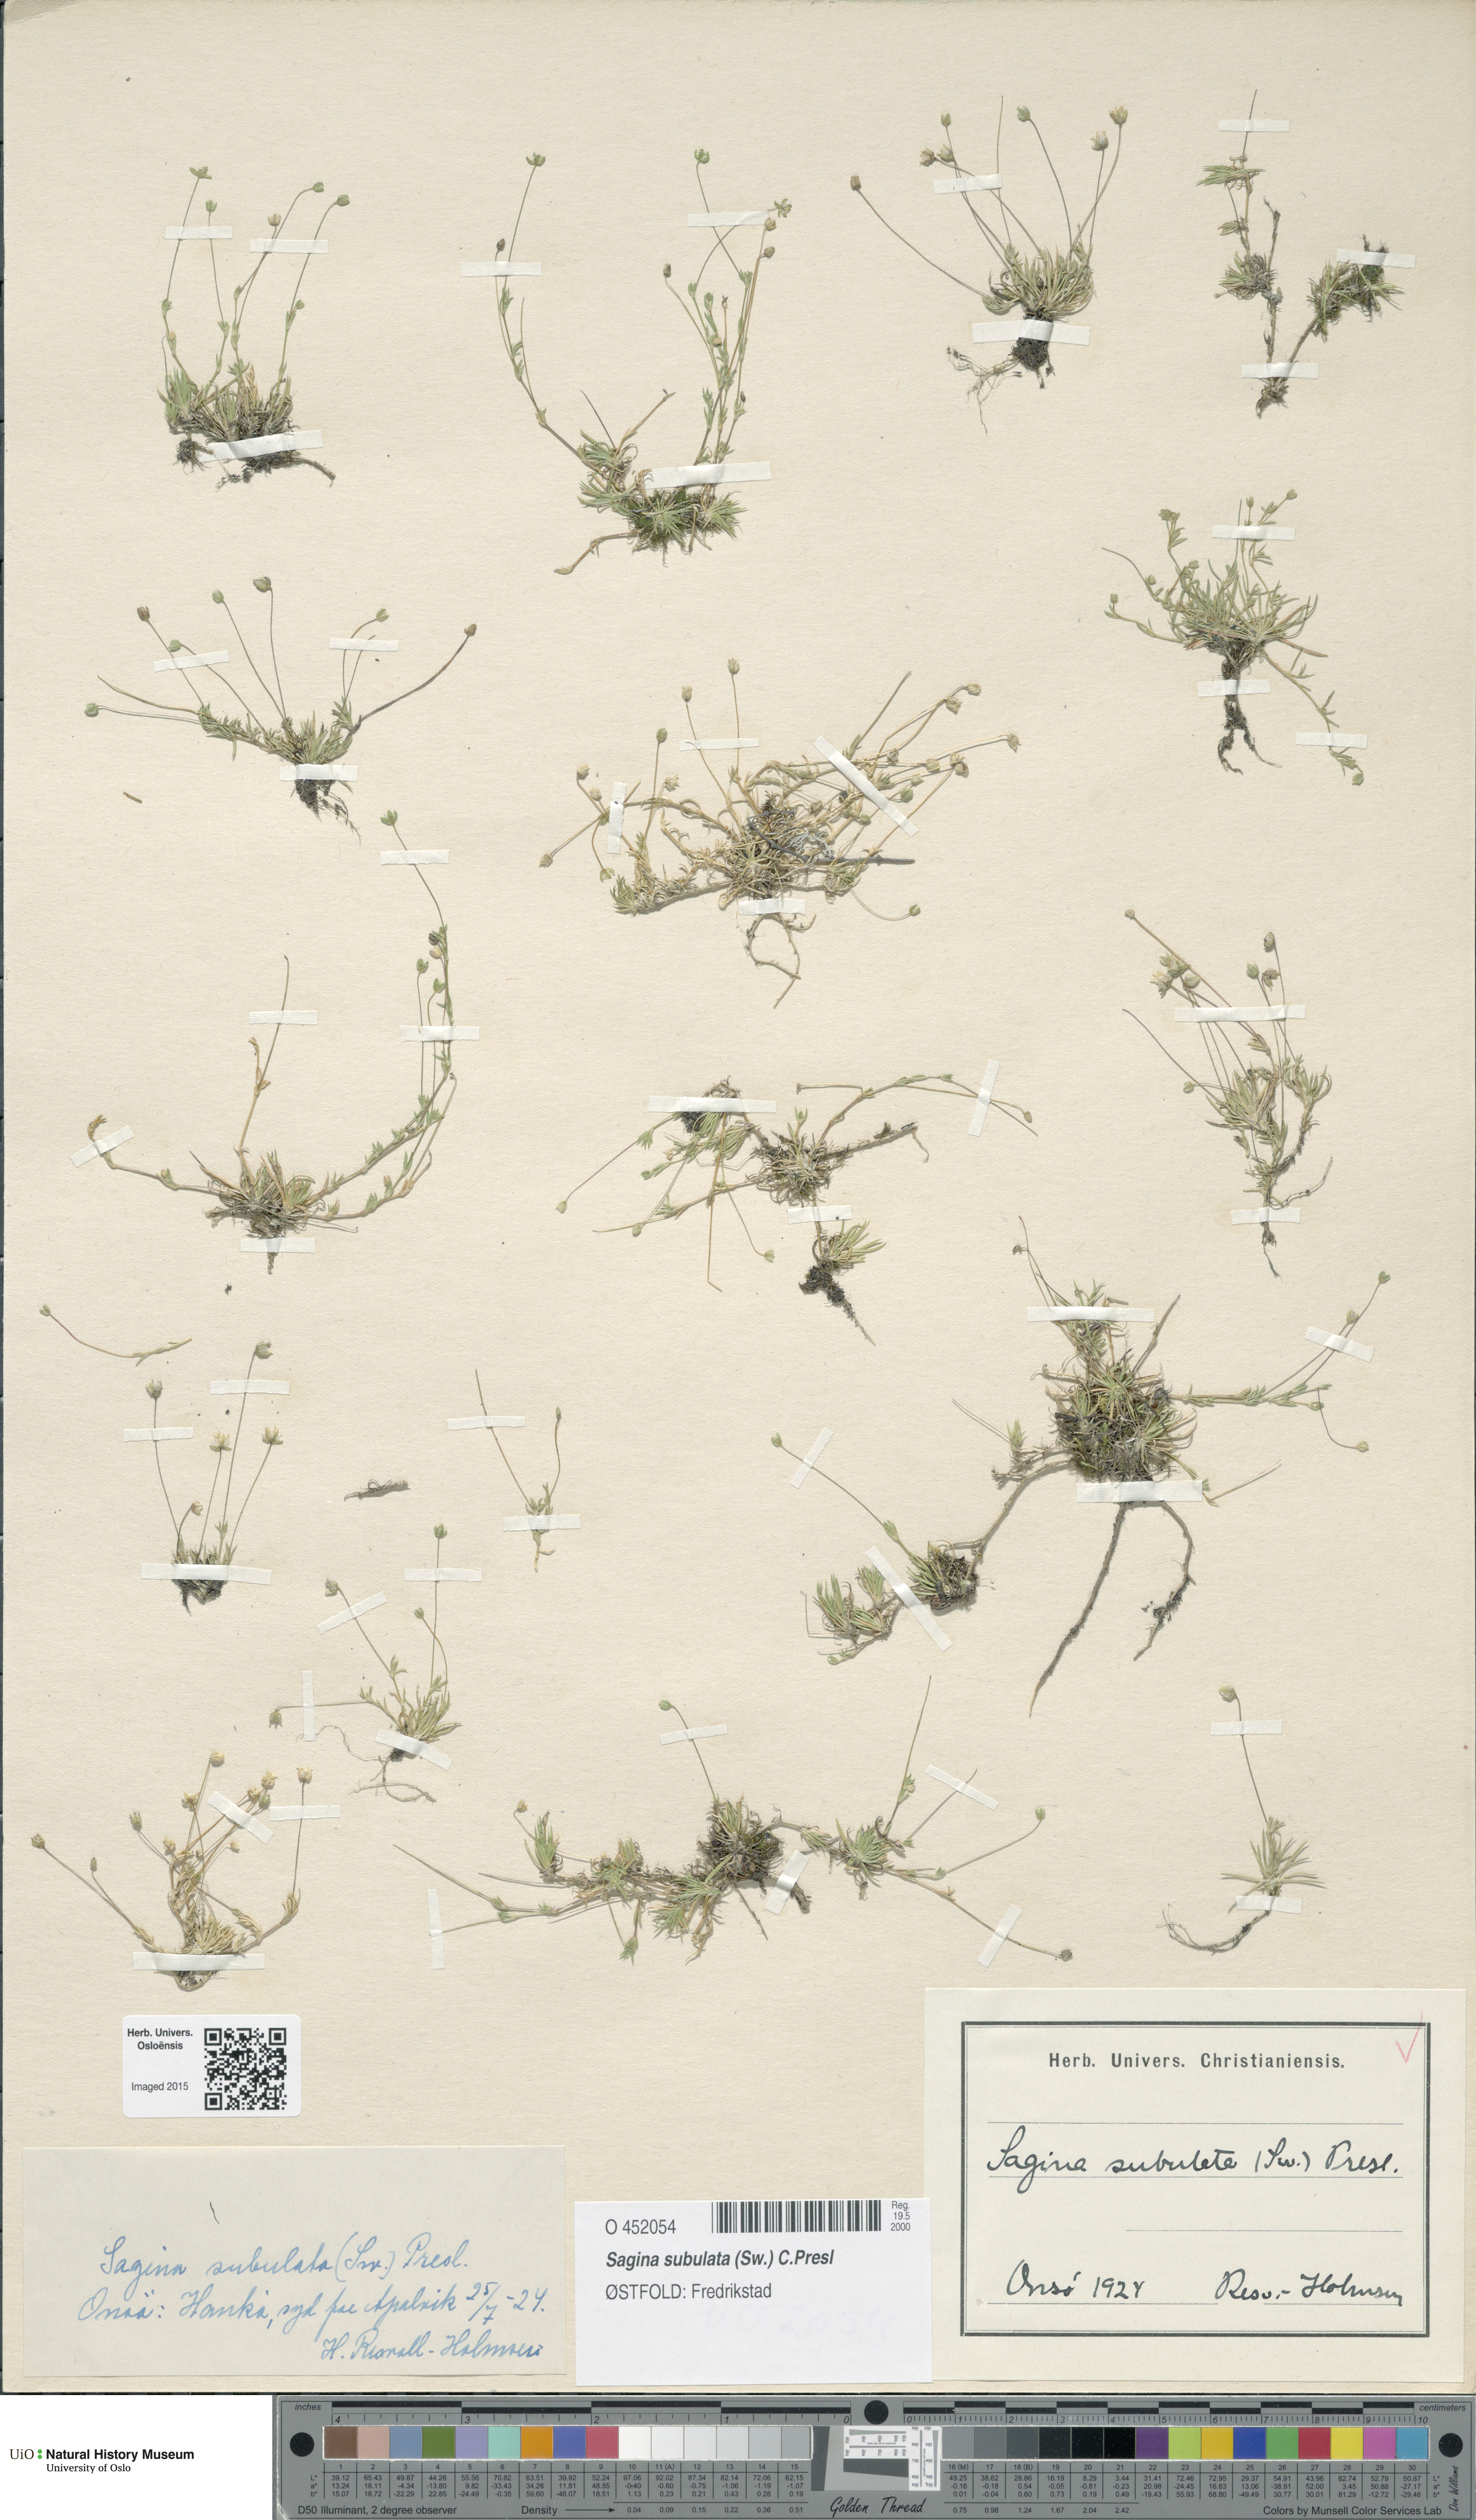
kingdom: Plantae
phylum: Tracheophyta
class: Magnoliopsida
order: Caryophyllales
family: Caryophyllaceae
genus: Sagina
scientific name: Sagina alexandrae
